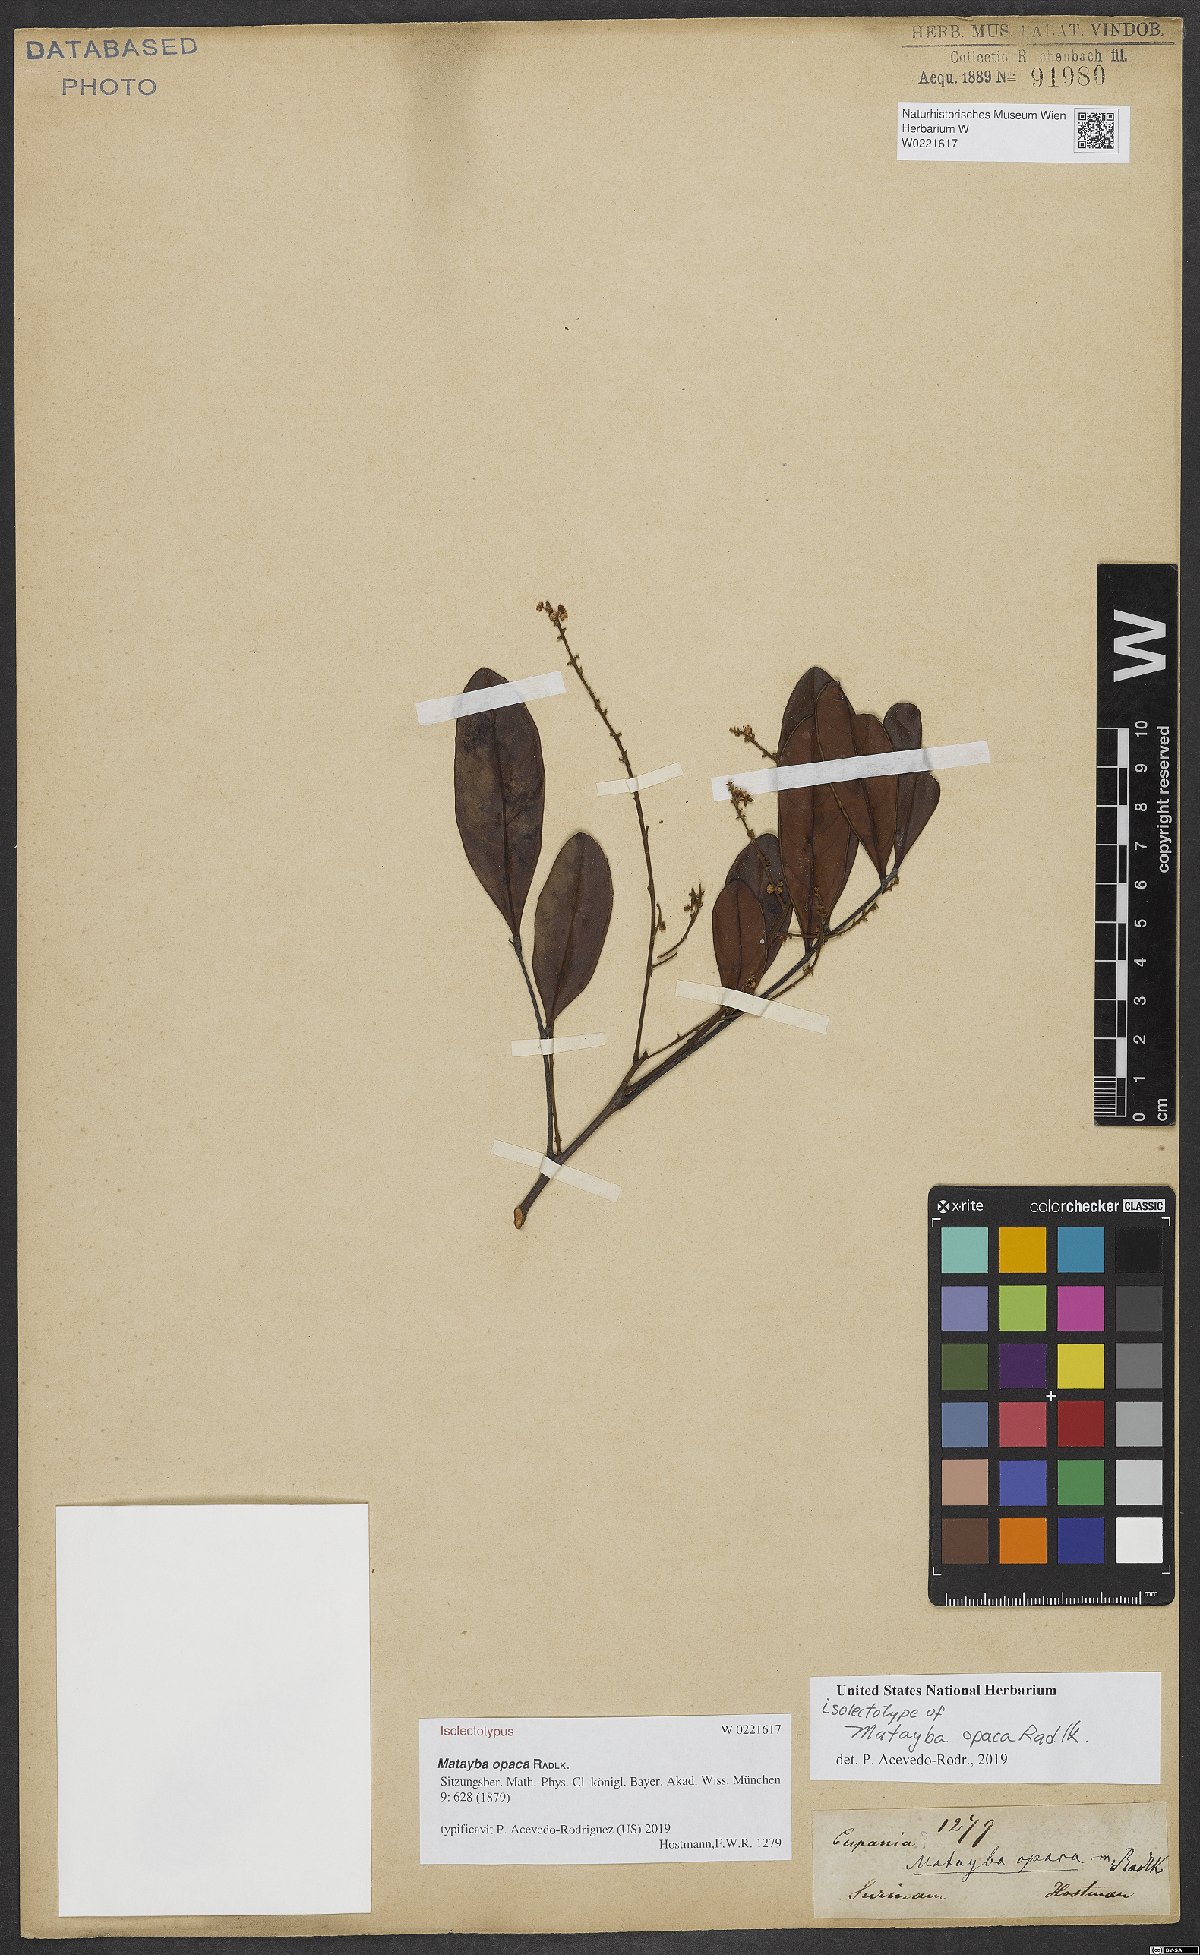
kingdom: Plantae
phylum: Tracheophyta
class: Magnoliopsida
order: Sapindales
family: Sapindaceae
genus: Matayba
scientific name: Matayba opaca
